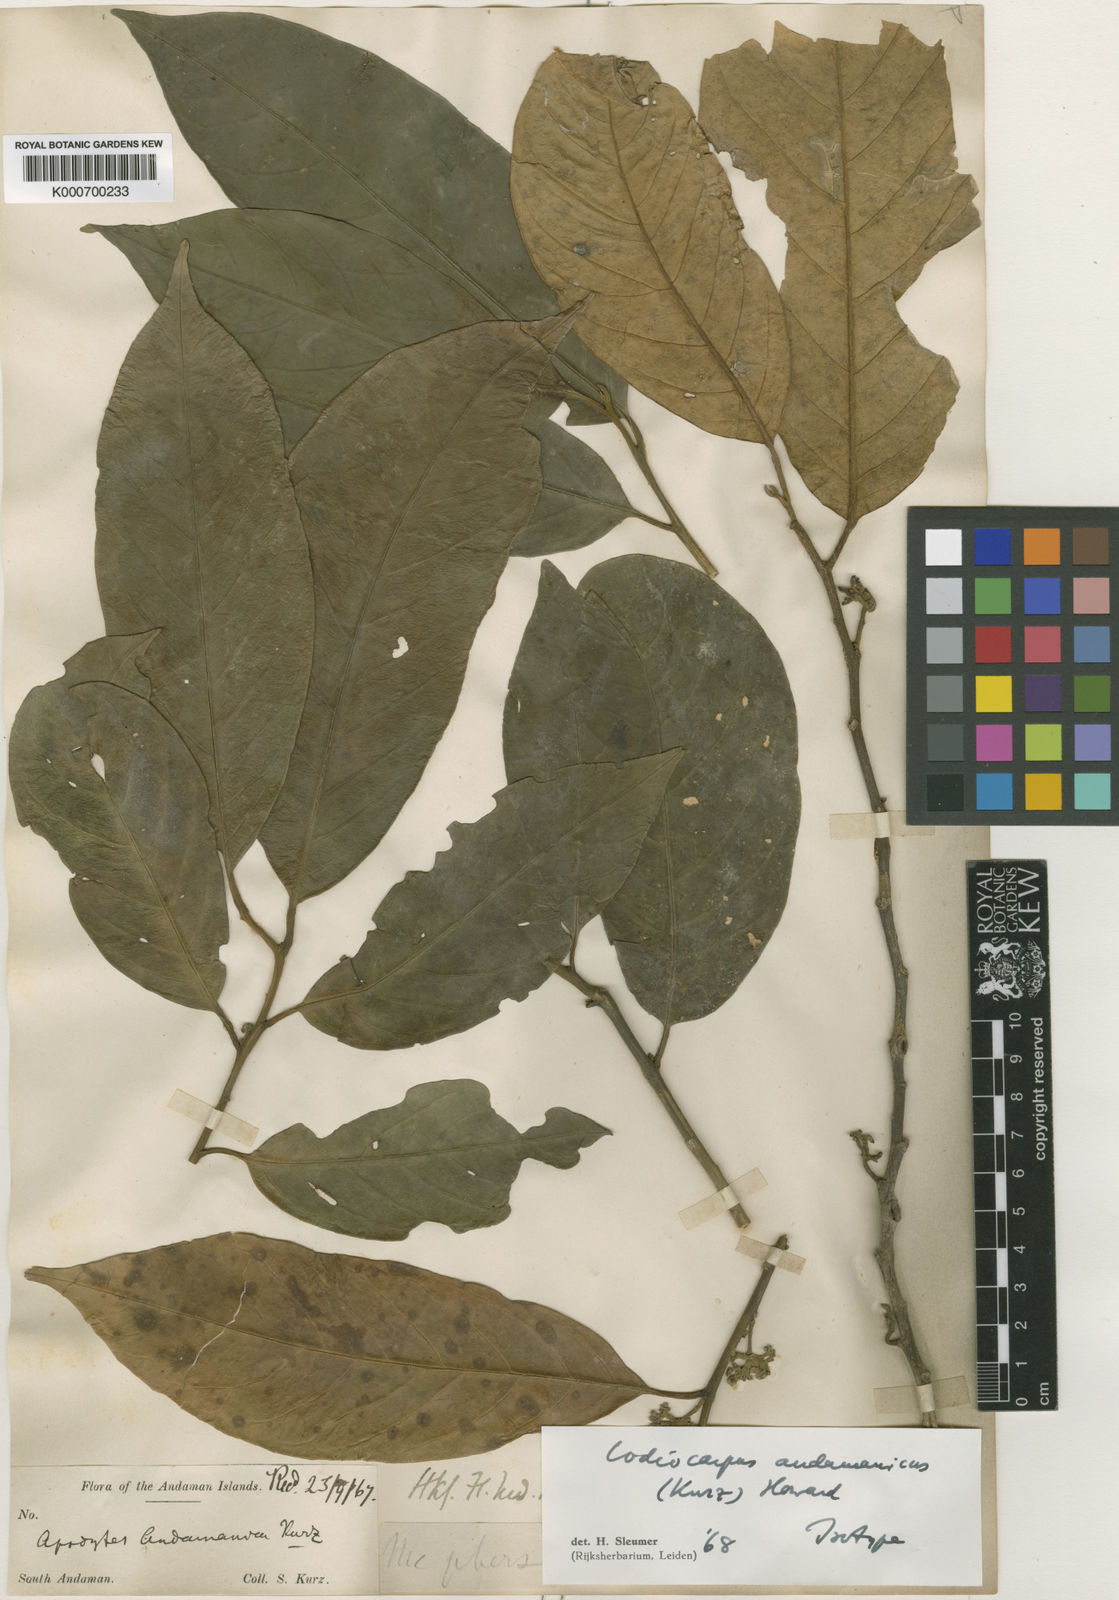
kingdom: Plantae
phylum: Tracheophyta
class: Magnoliopsida
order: Cardiopteridales
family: Stemonuraceae
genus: Codiocarpus
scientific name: Codiocarpus andamanicus
